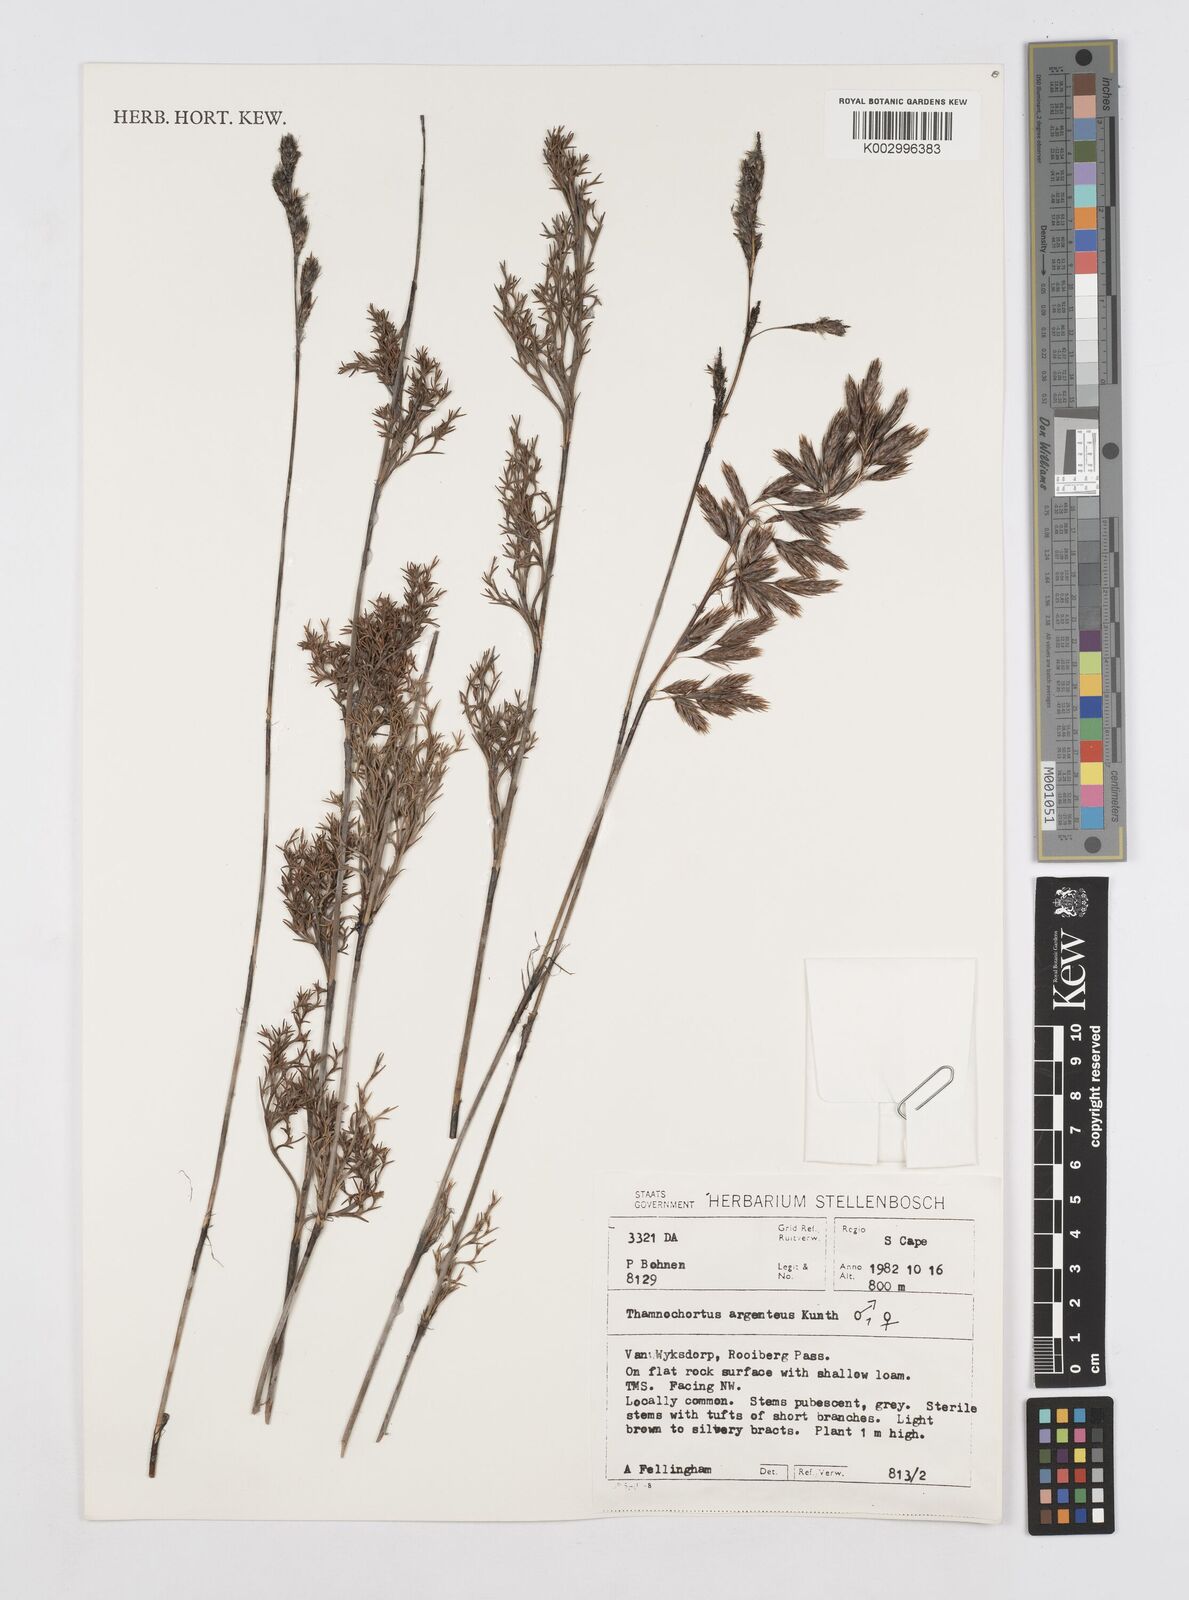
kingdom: Plantae
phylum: Tracheophyta
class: Liliopsida
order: Poales
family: Restionaceae
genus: Hypodiscus
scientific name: Hypodiscus argenteus
